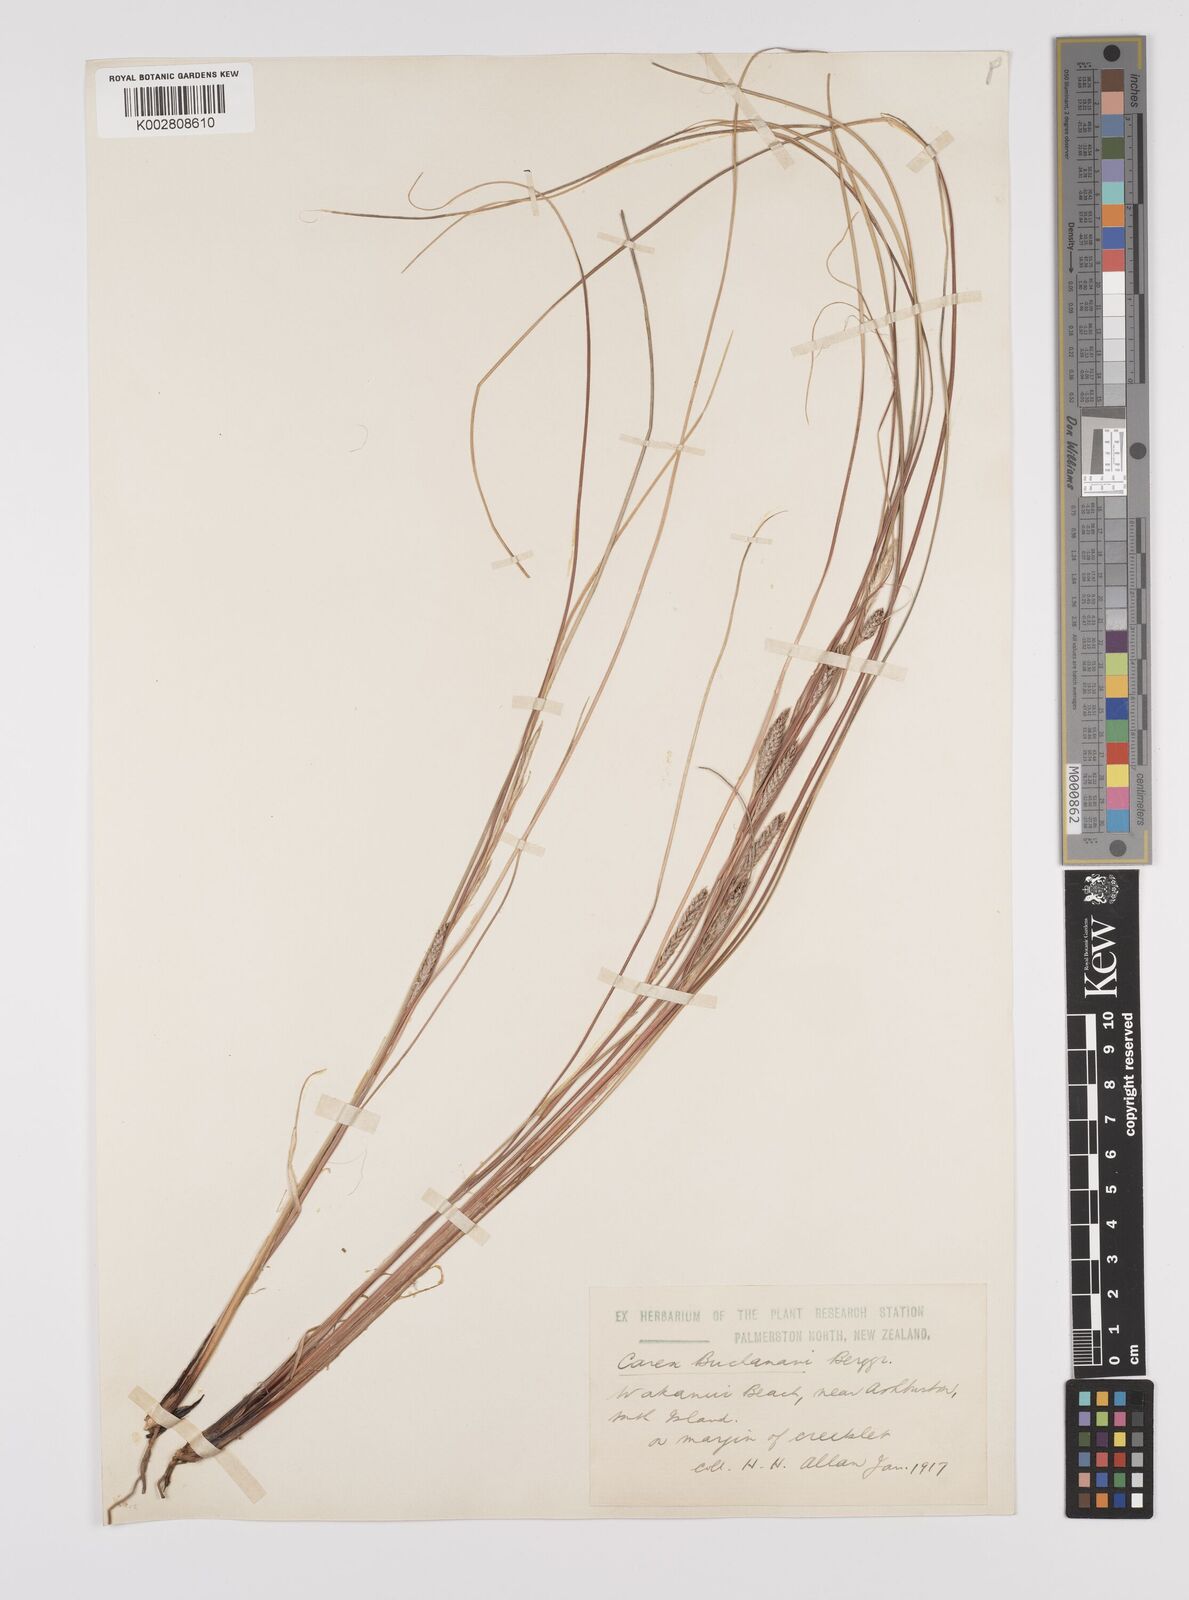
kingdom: Plantae
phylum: Tracheophyta
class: Liliopsida
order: Poales
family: Cyperaceae
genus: Carex
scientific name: Carex flagellifera
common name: Glen murray tussock
